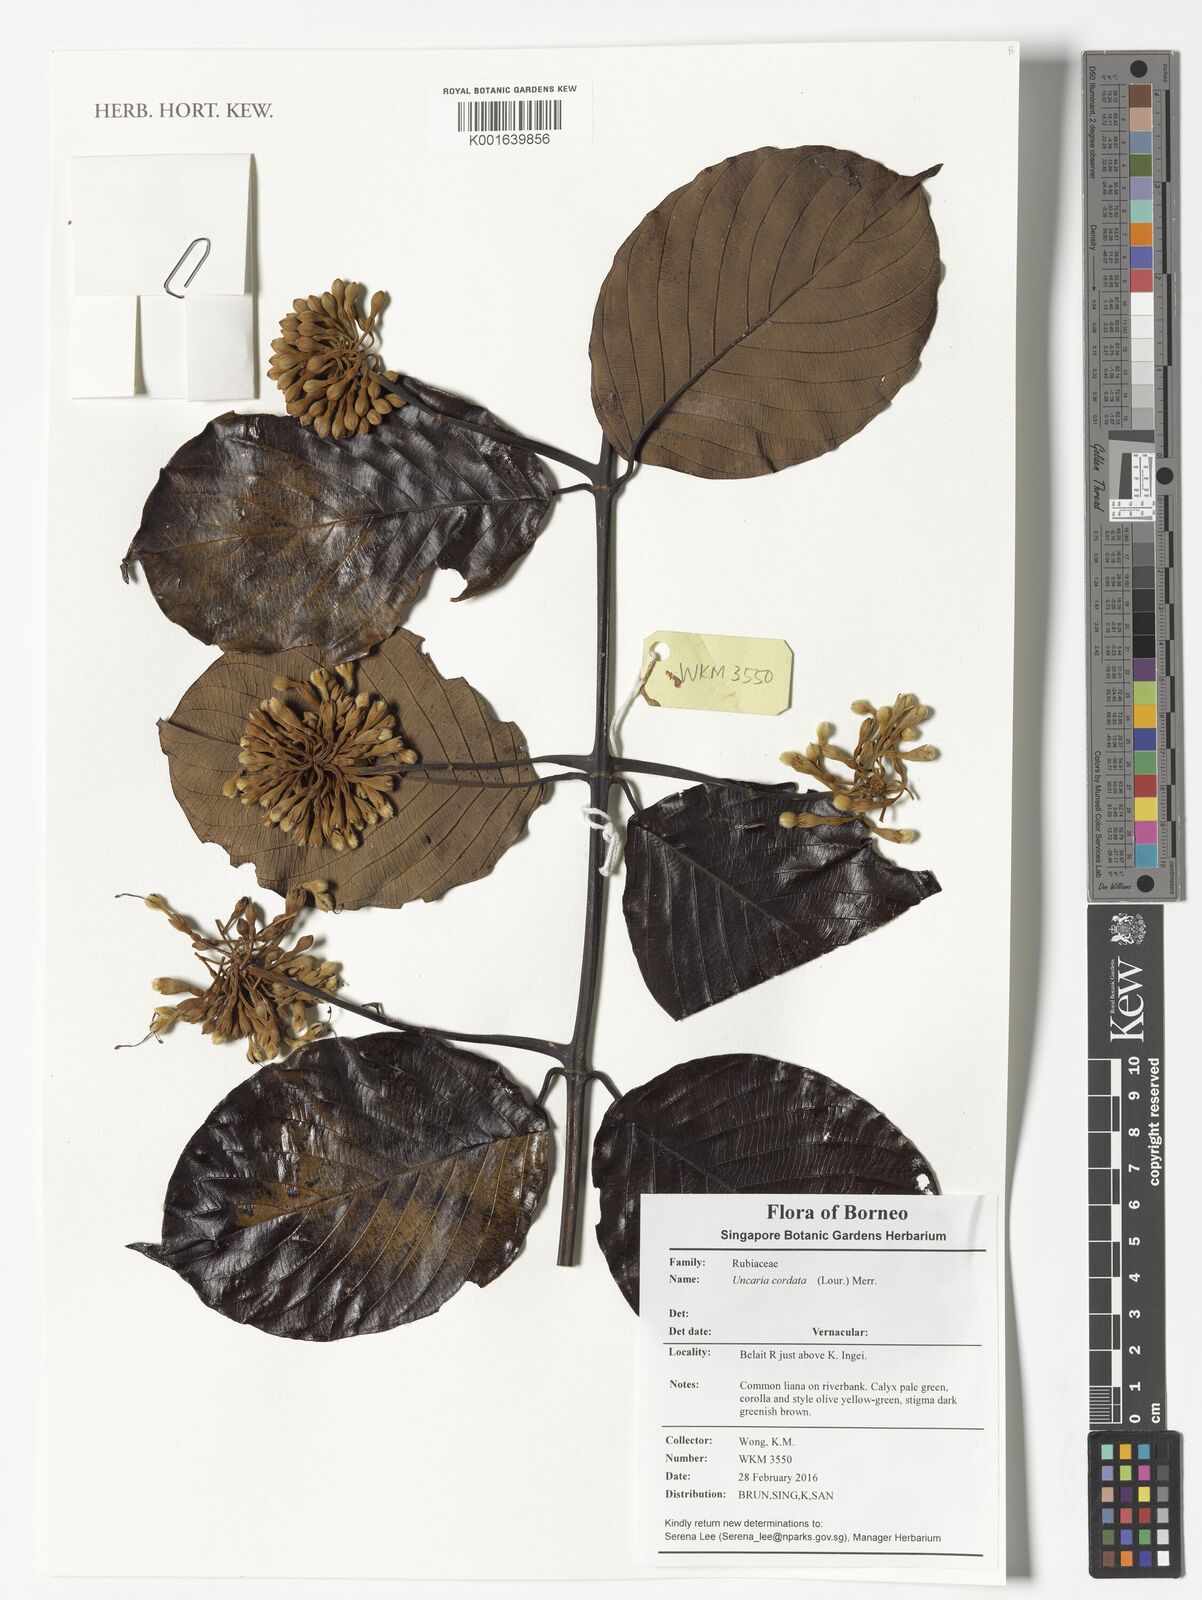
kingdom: Plantae
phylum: Tracheophyta
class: Magnoliopsida
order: Gentianales
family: Rubiaceae
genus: Uncaria
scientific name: Uncaria cordata
